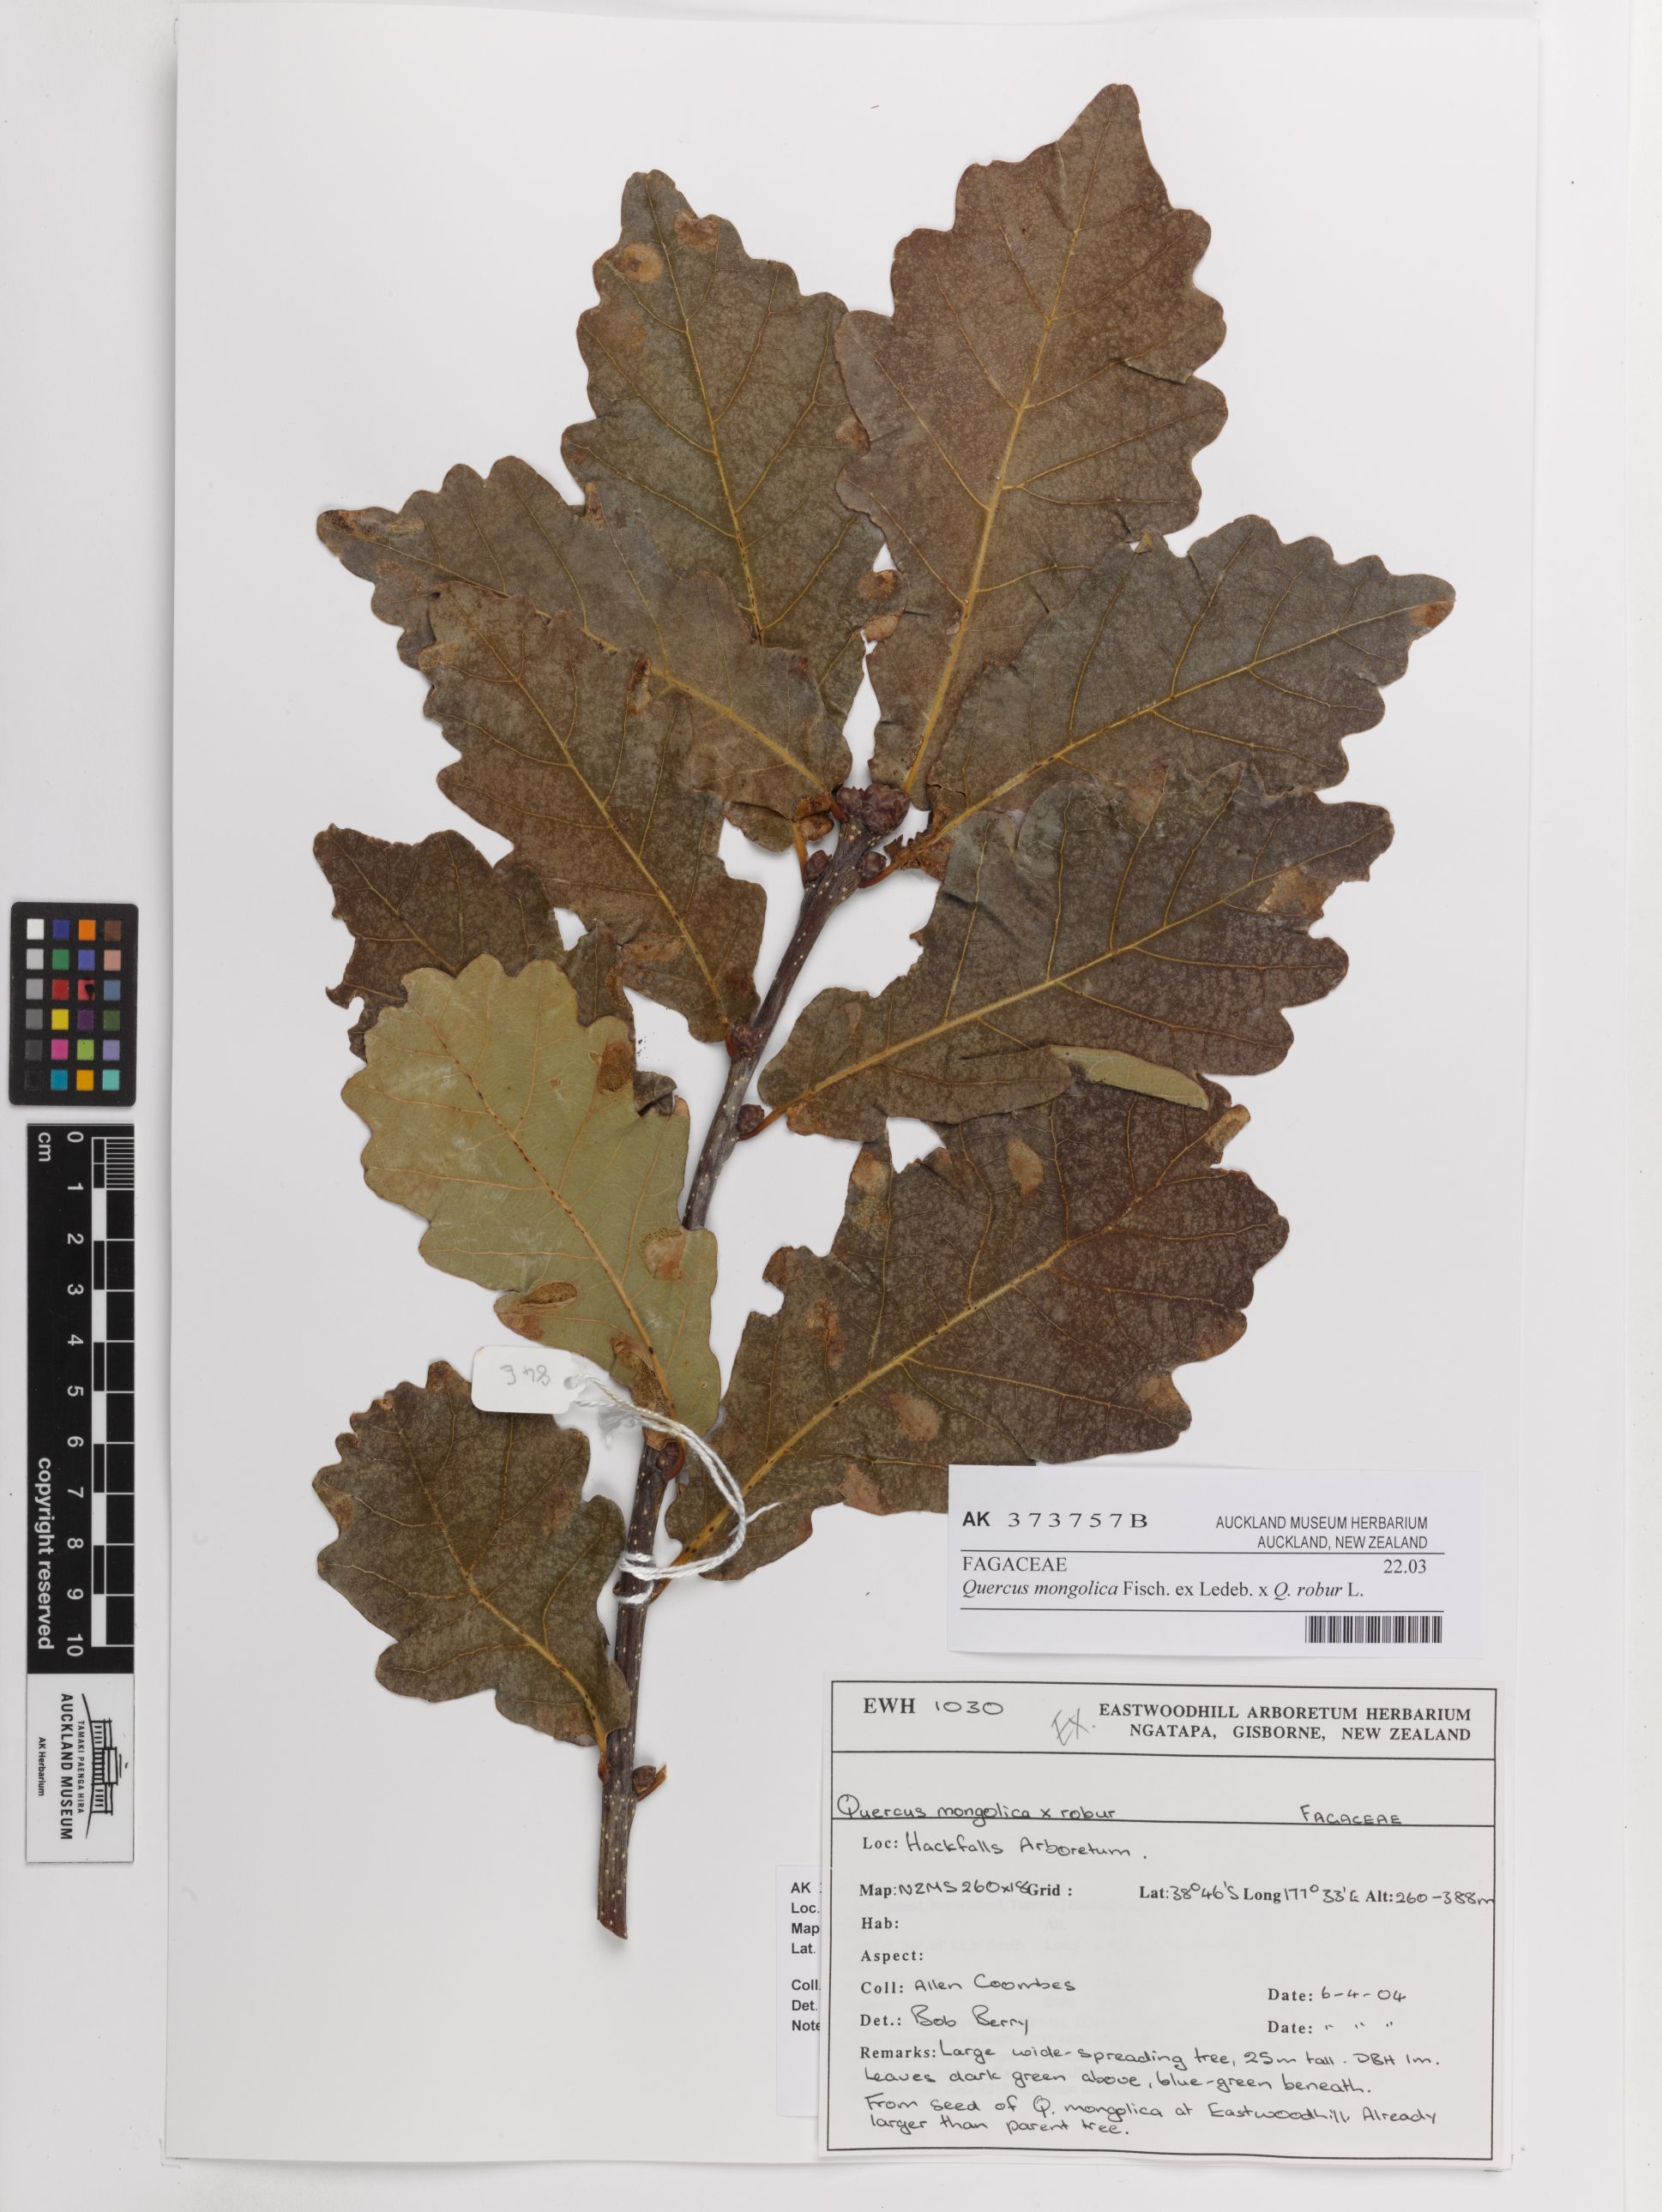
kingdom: Plantae
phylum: Tracheophyta
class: Magnoliopsida
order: Fagales
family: Fagaceae
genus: Quercus
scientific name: Quercus
